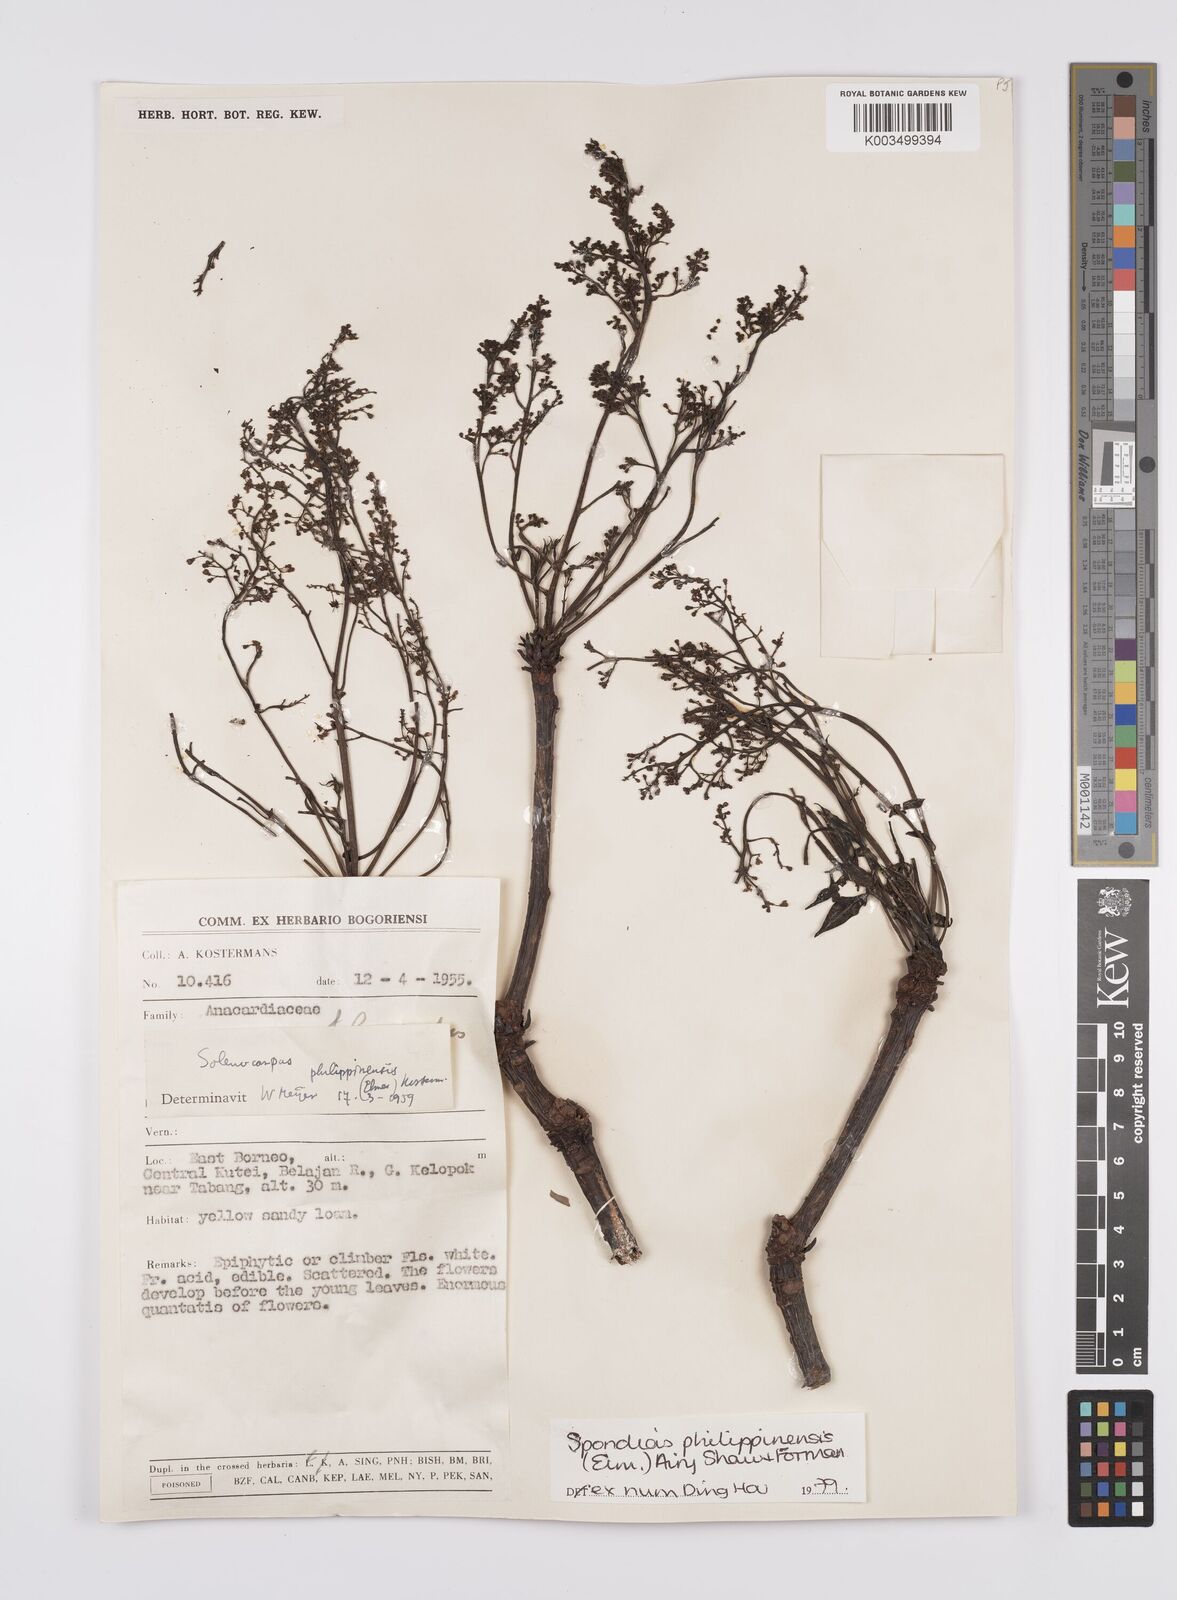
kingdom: Plantae
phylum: Tracheophyta
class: Magnoliopsida
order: Sapindales
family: Anacardiaceae
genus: Spondias
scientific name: Spondias philippinensis
